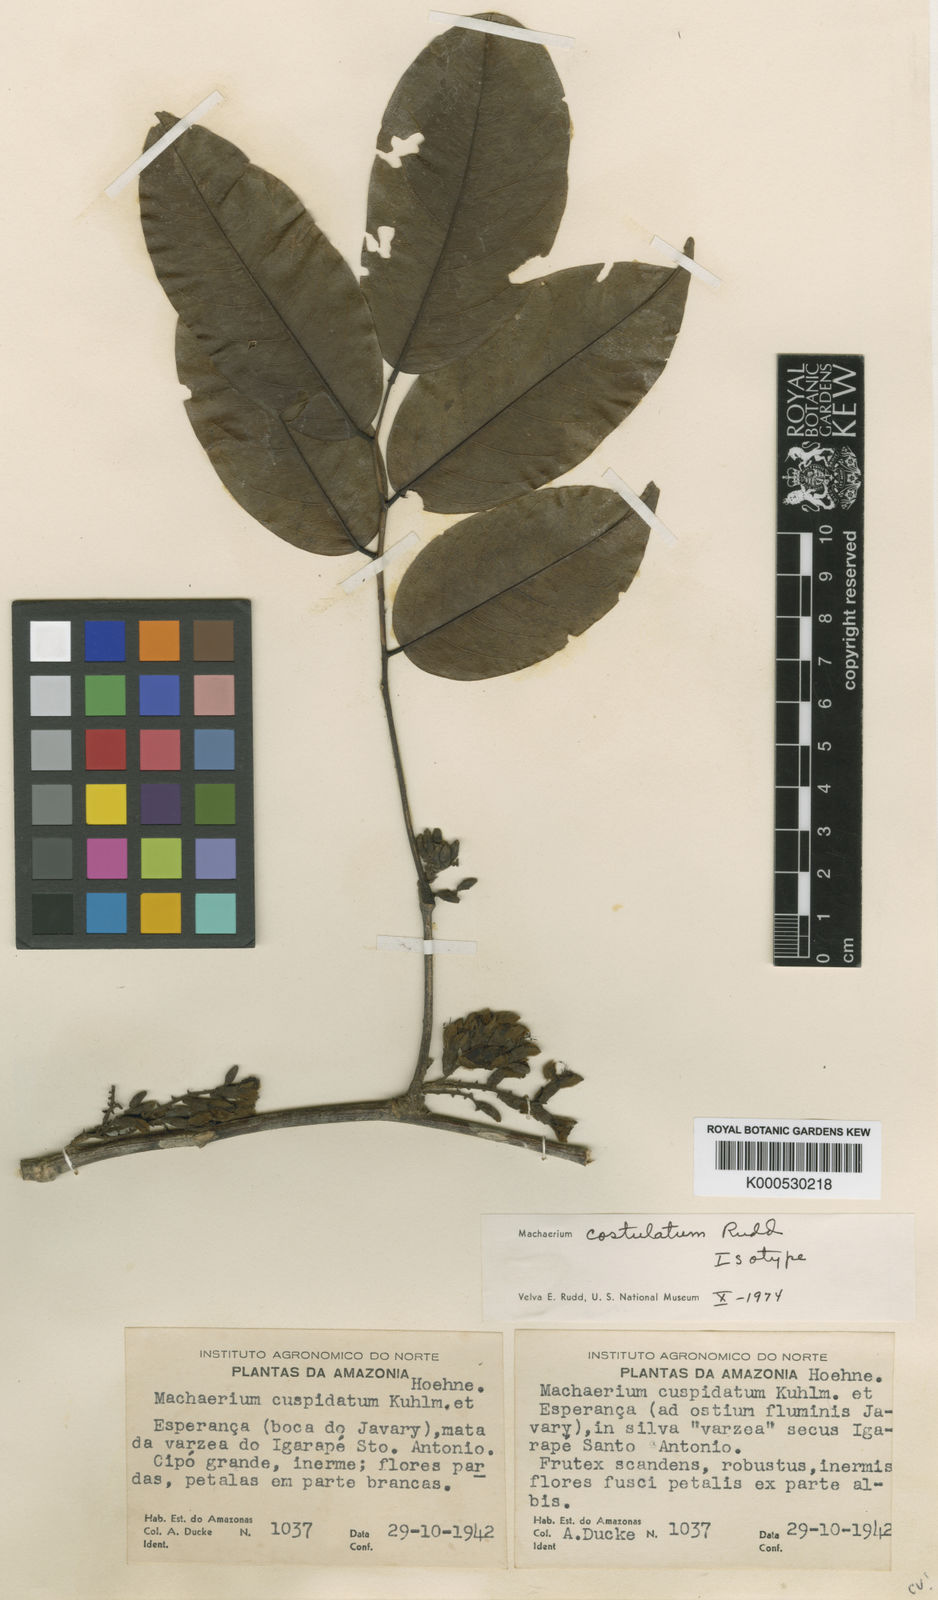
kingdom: Plantae
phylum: Tracheophyta
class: Magnoliopsida
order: Fabales
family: Fabaceae
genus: Machaerium
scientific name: Machaerium costulatum
